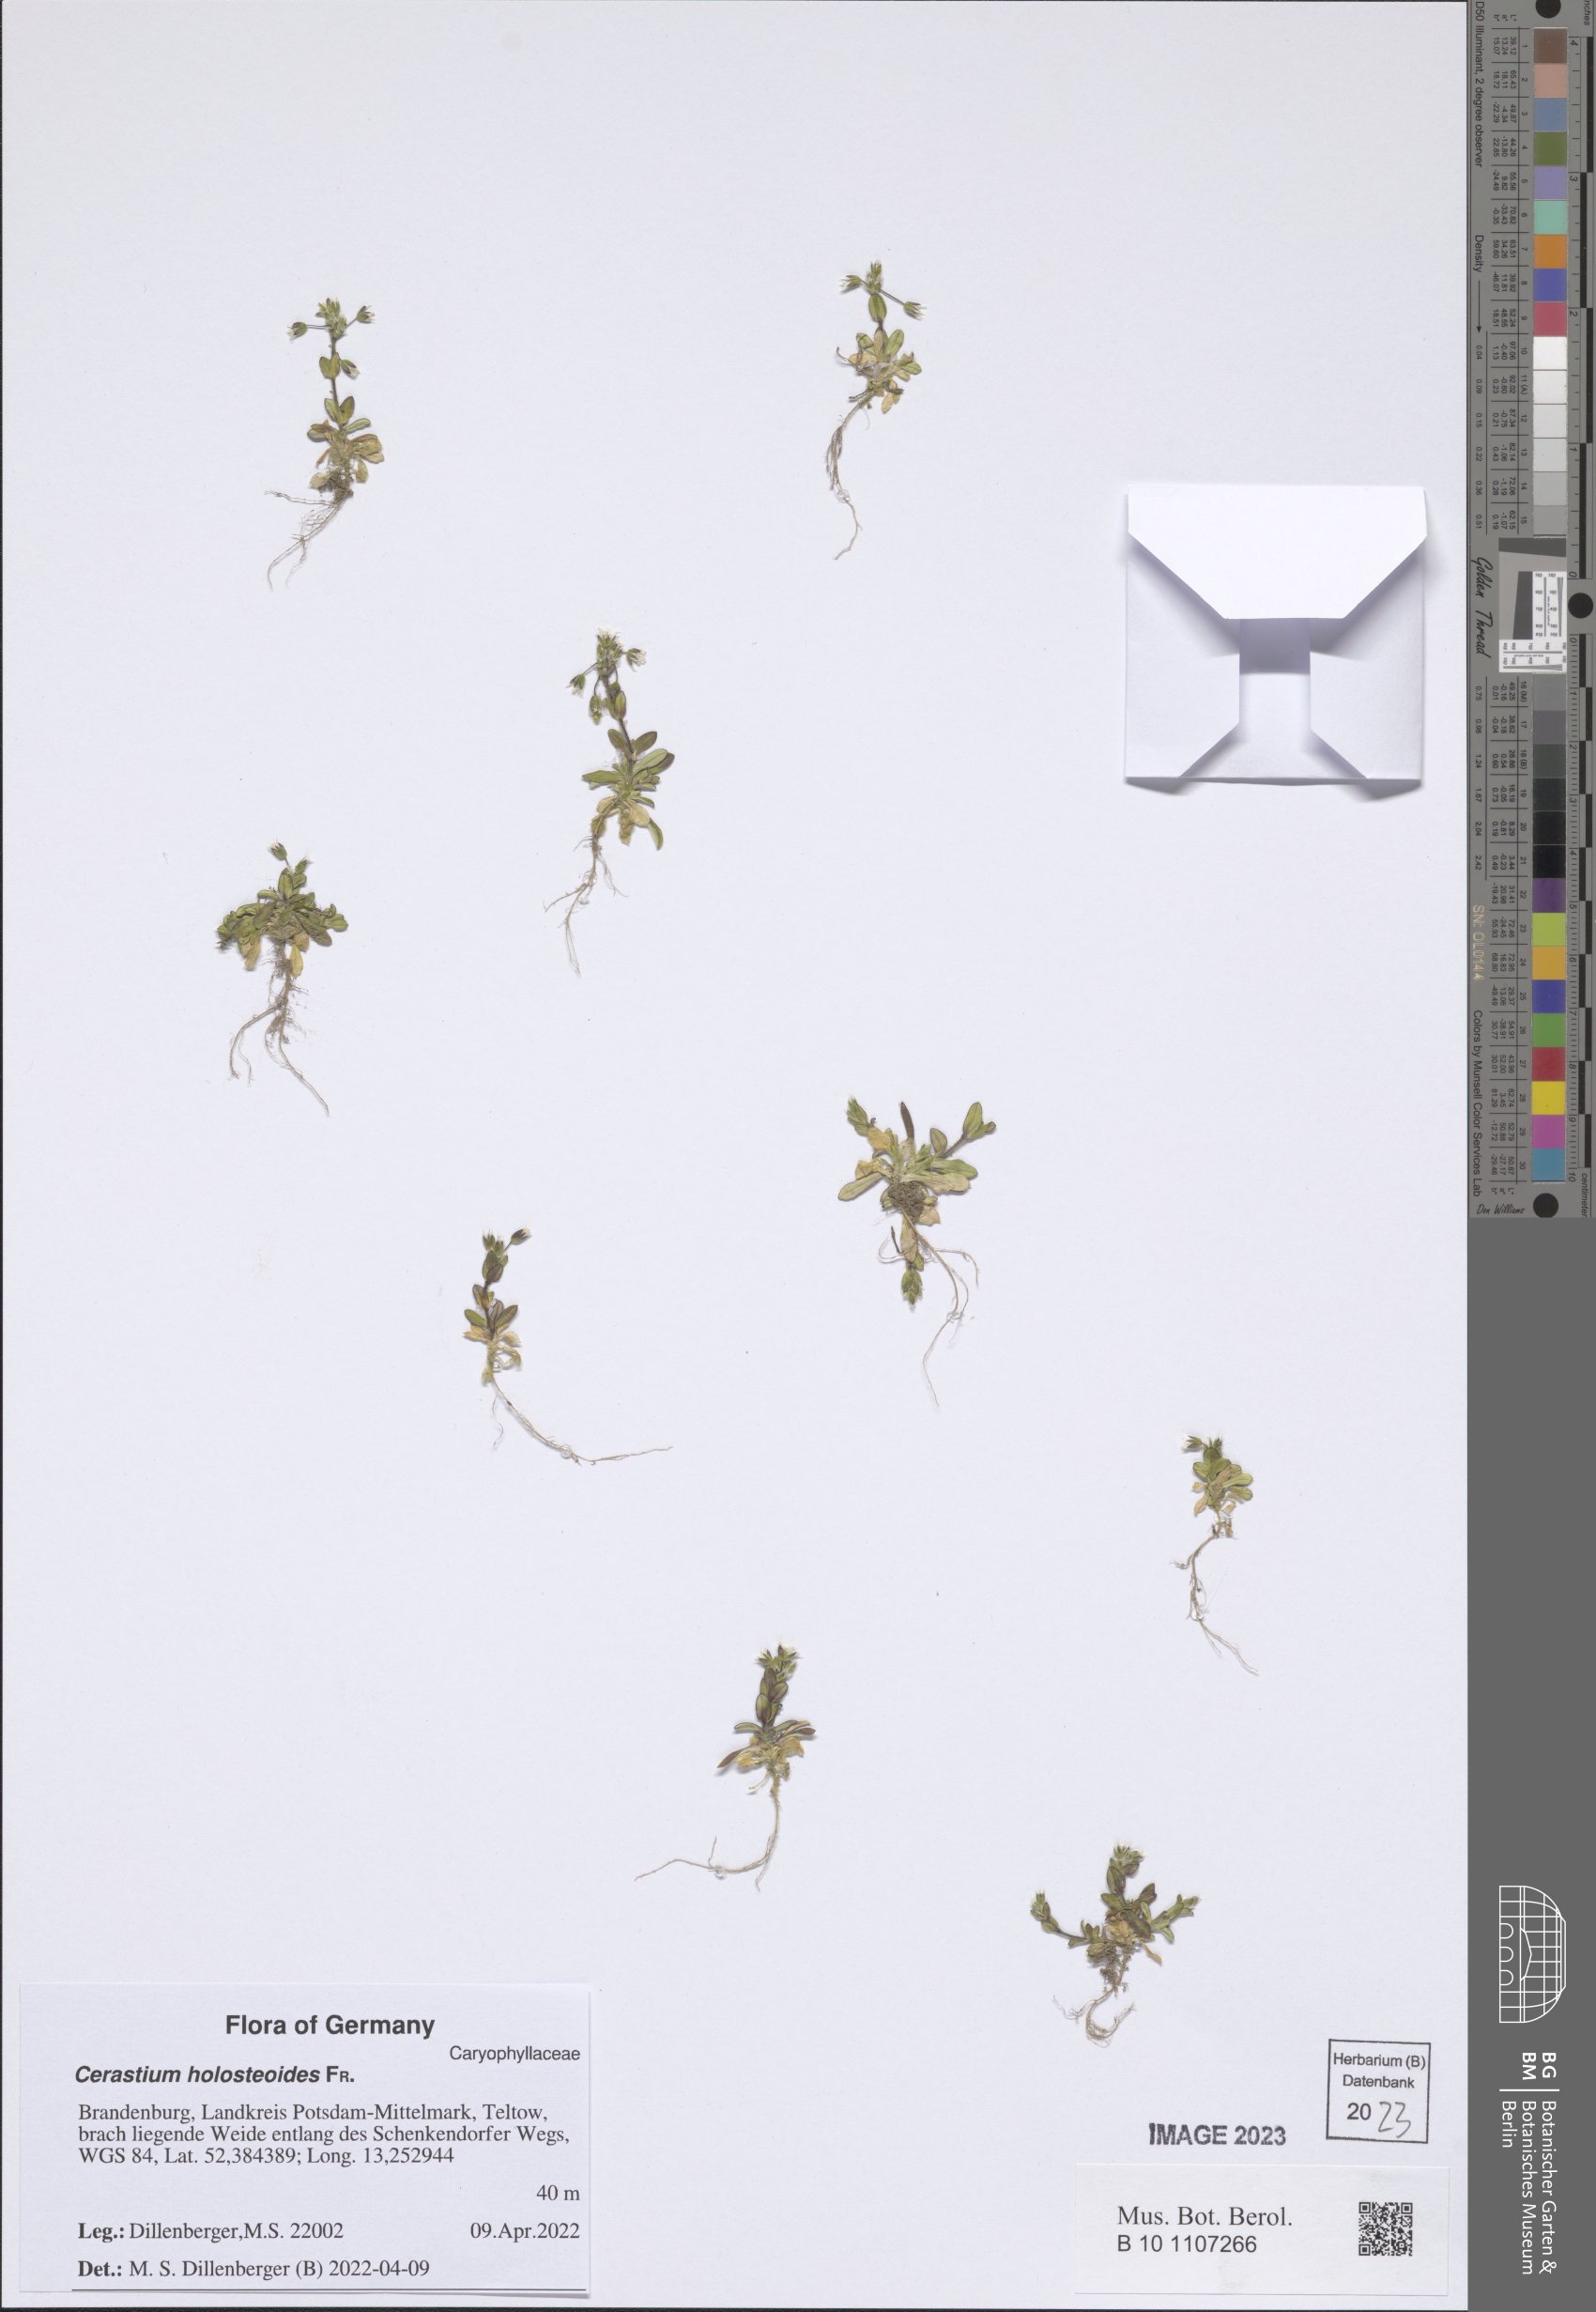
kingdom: Plantae
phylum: Tracheophyta
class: Magnoliopsida
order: Caryophyllales
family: Caryophyllaceae
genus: Cerastium
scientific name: Cerastium holosteoides
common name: Big chickweed
